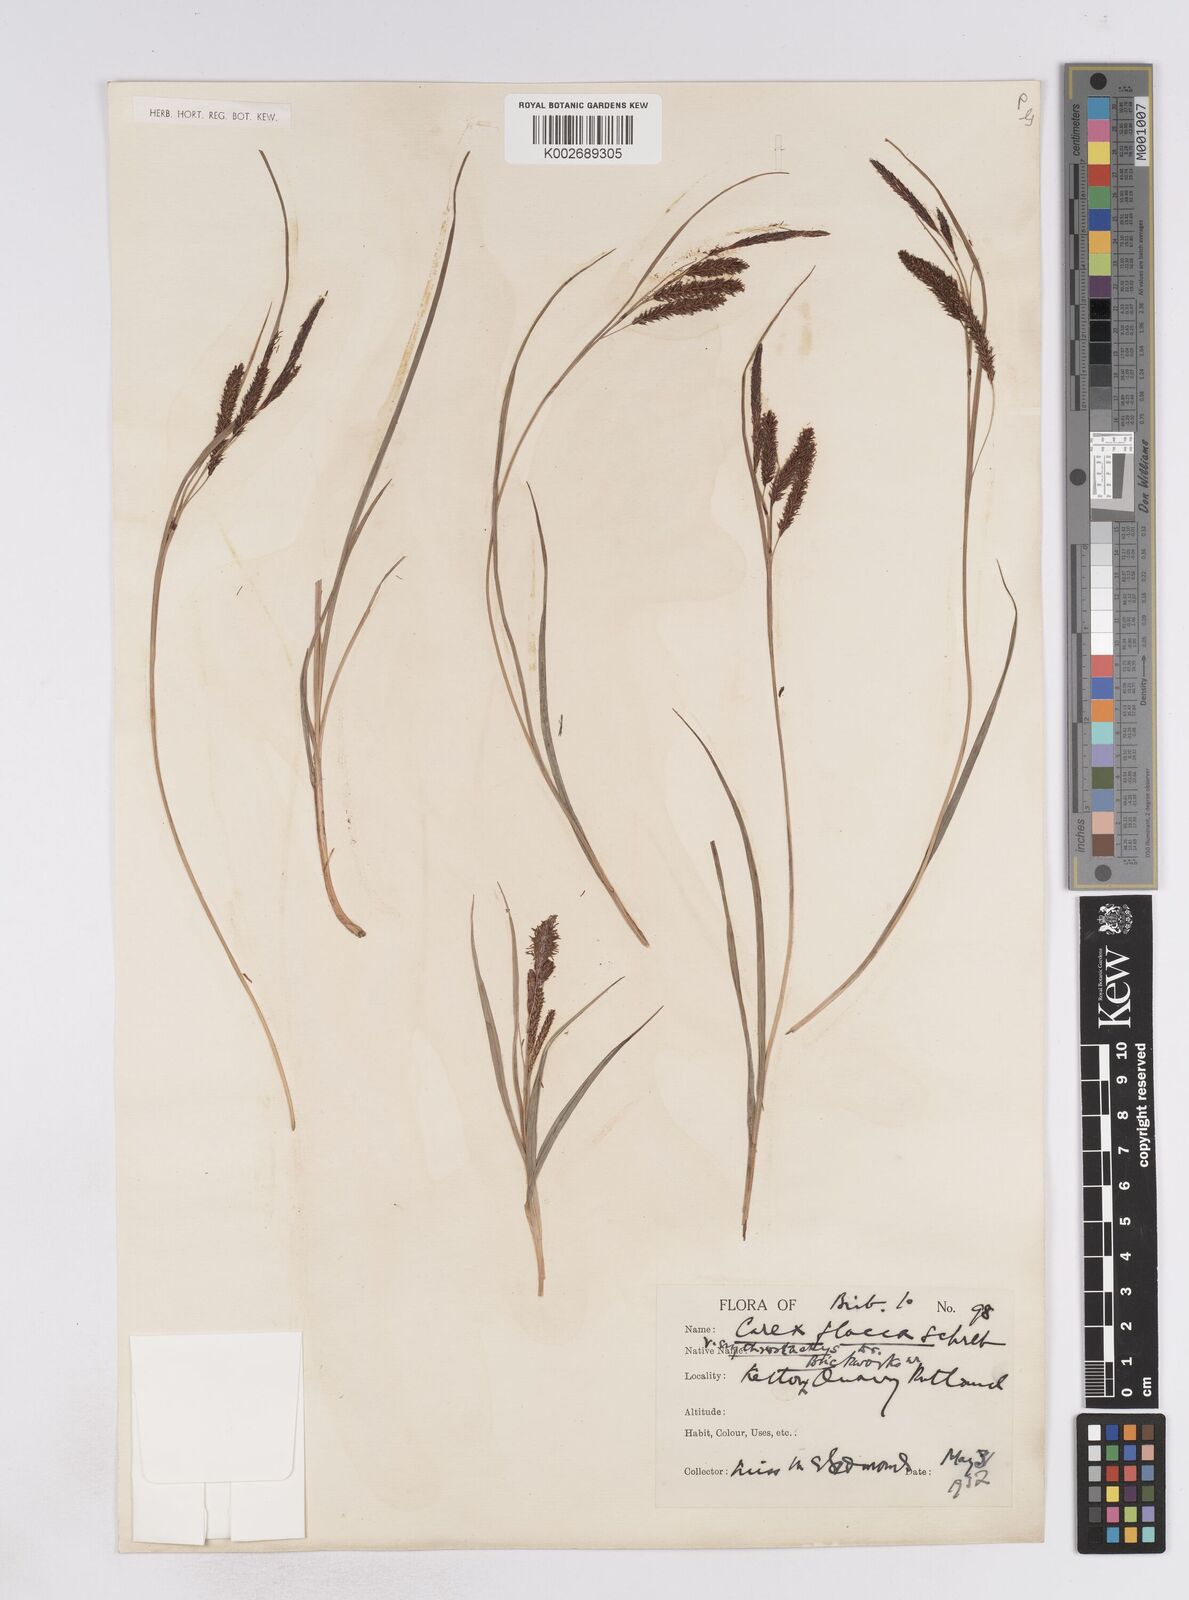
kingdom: Plantae
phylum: Tracheophyta
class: Liliopsida
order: Poales
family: Cyperaceae
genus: Carex
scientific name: Carex flacca
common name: Glaucous sedge
